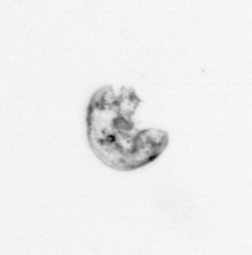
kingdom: Animalia
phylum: Arthropoda
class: Maxillopoda
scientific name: Maxillopoda
